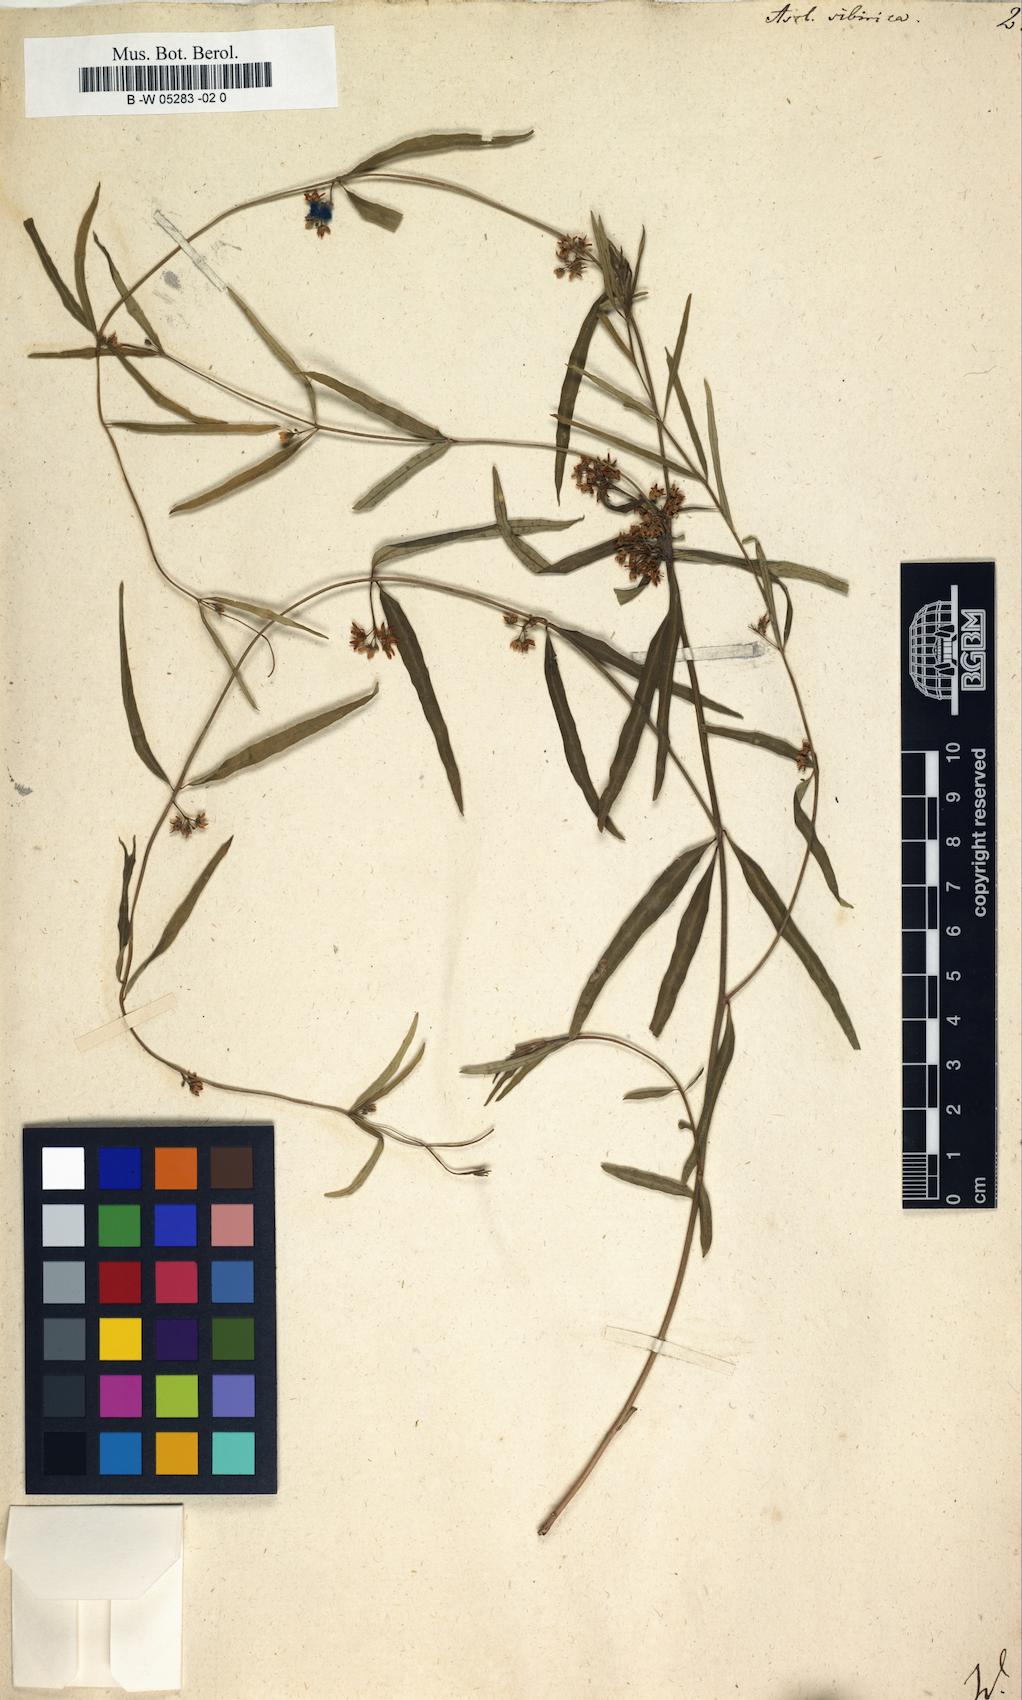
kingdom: Plantae
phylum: Tracheophyta
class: Magnoliopsida
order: Gentianales
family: Apocynaceae
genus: Cynanchum
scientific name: Cynanchum thesioides
